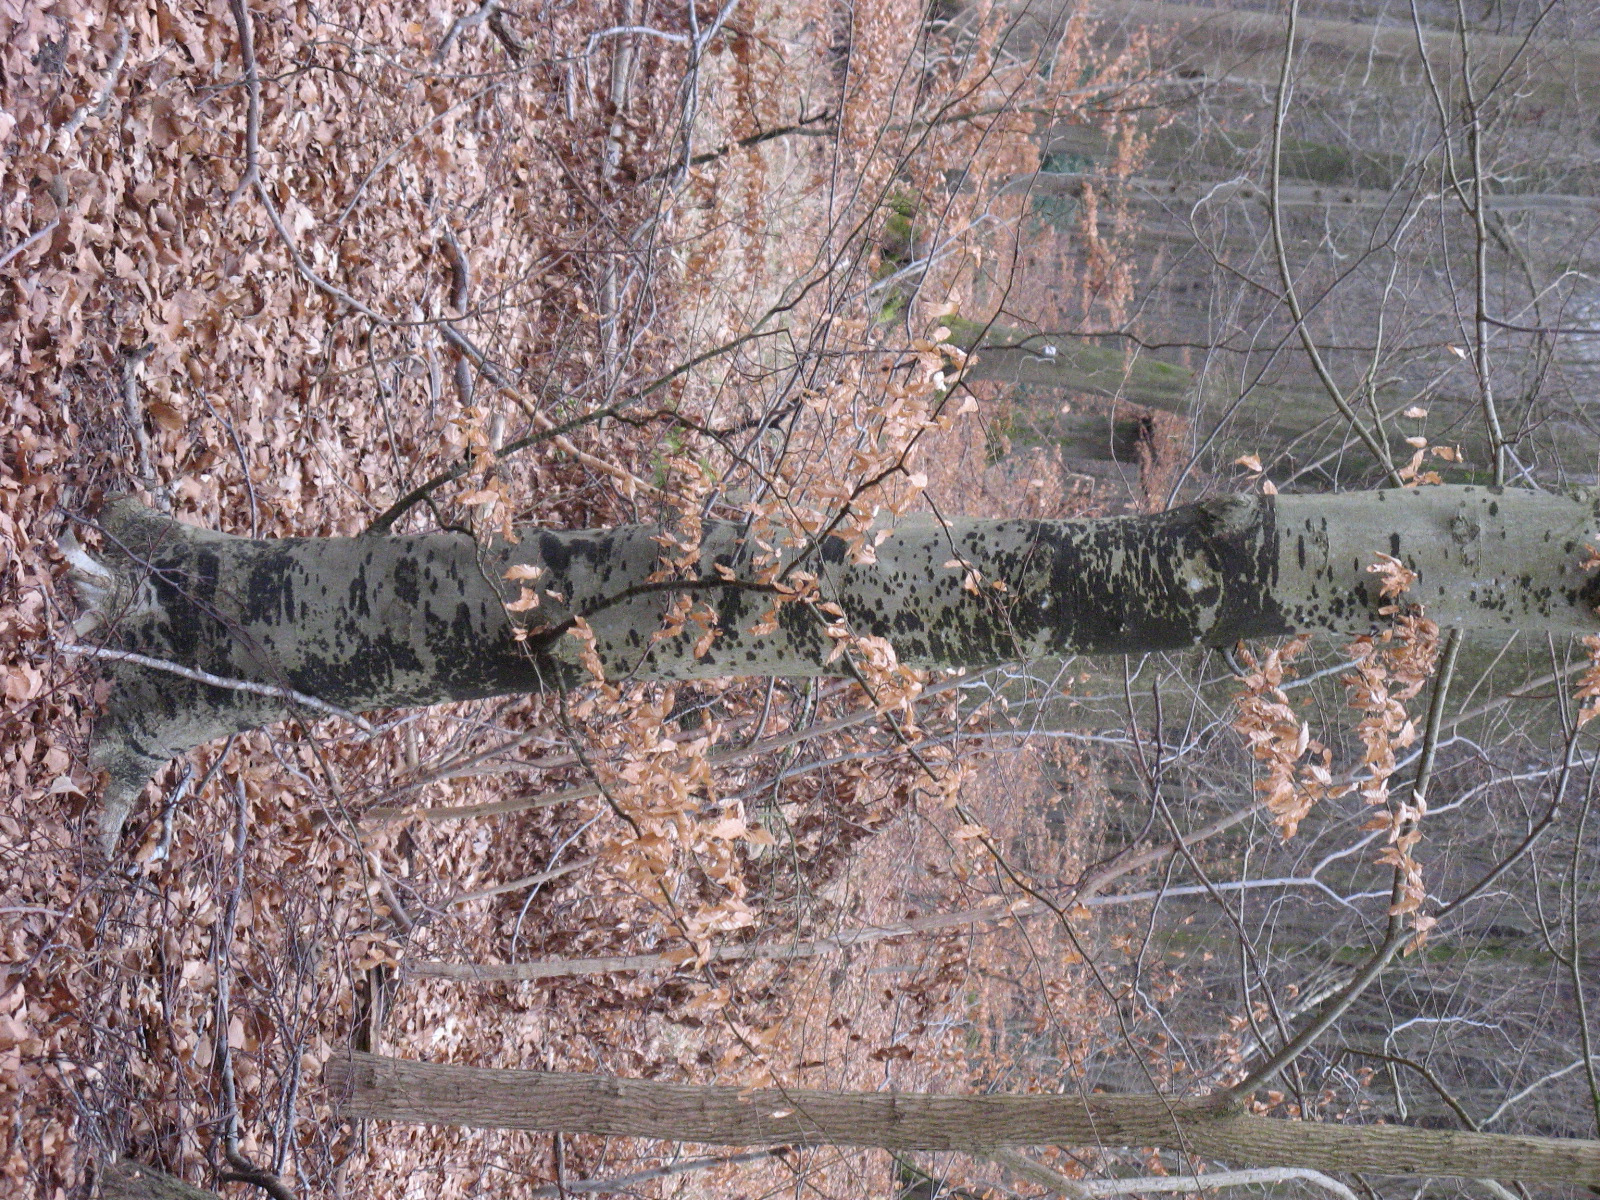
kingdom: Fungi
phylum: Ascomycota
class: Leotiomycetes
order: Rhytismatales
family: Ascodichaenaceae
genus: Ascodichaena
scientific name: Ascodichaena rugosa
